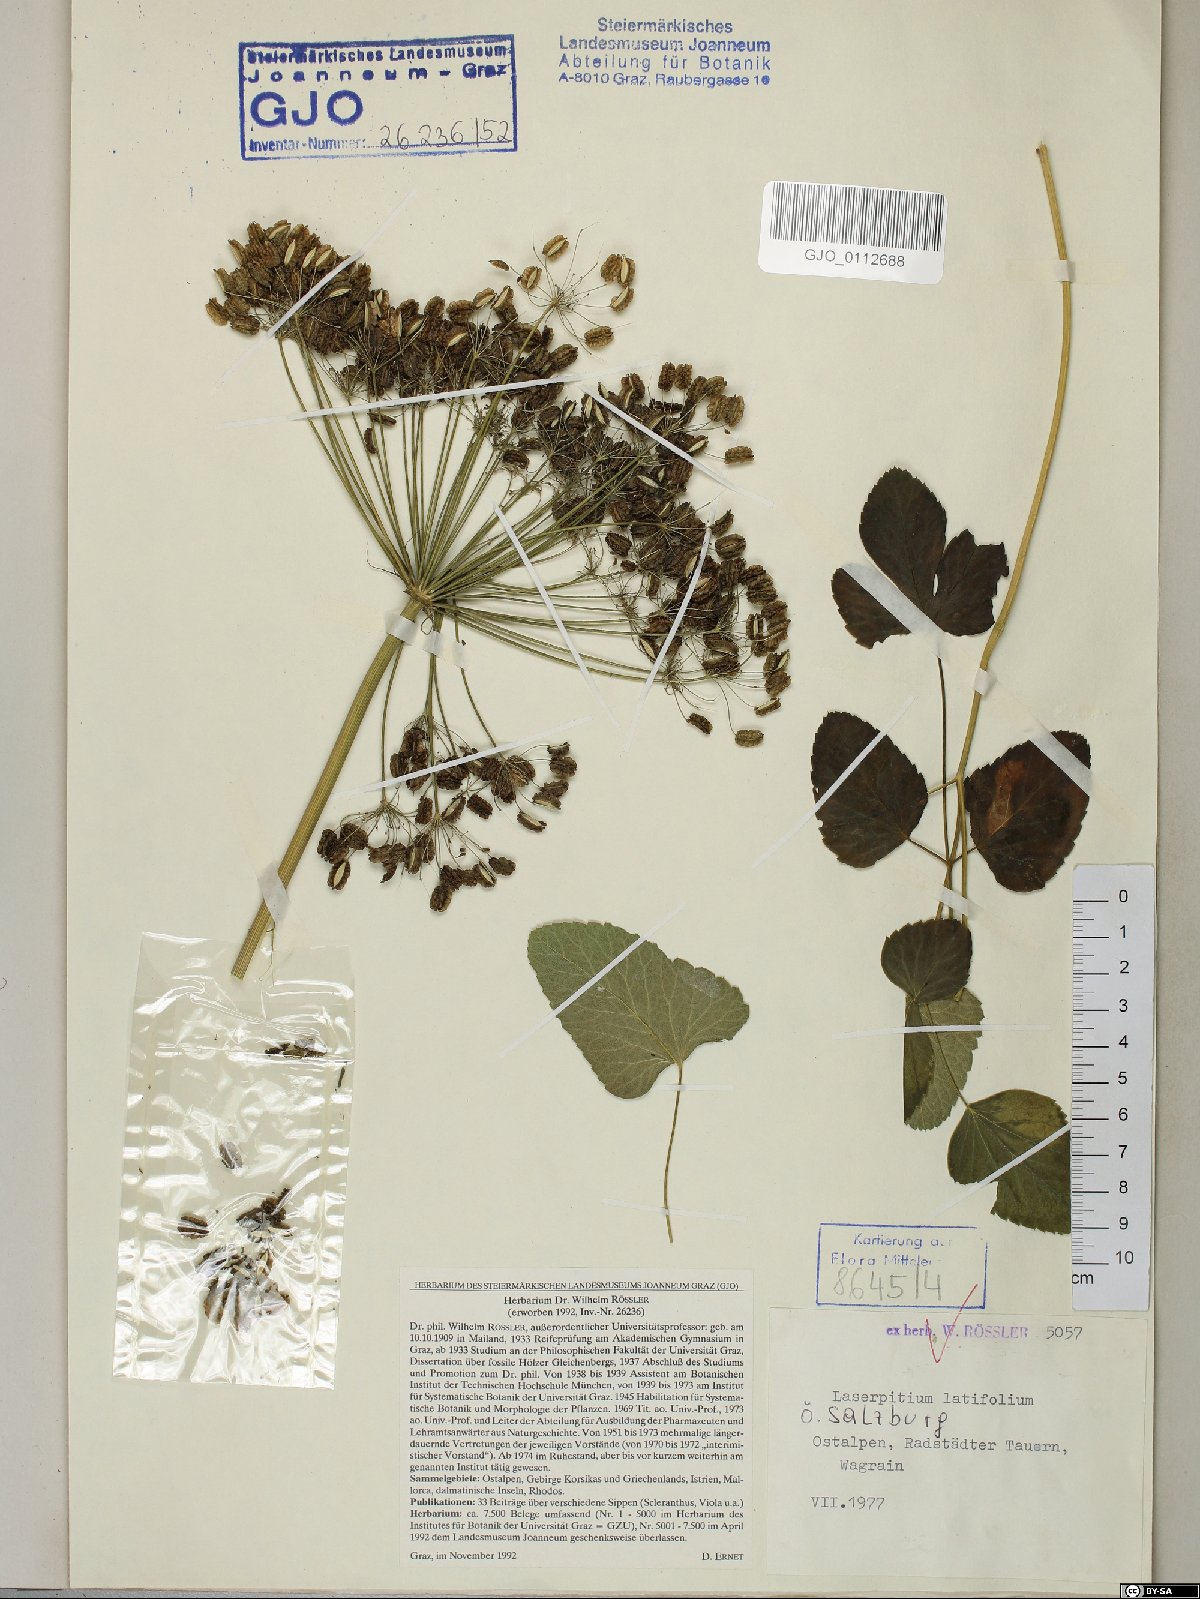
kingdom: Plantae
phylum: Tracheophyta
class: Magnoliopsida
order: Apiales
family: Apiaceae
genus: Laserpitium
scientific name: Laserpitium latifolium
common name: Broadleaf sermountain
